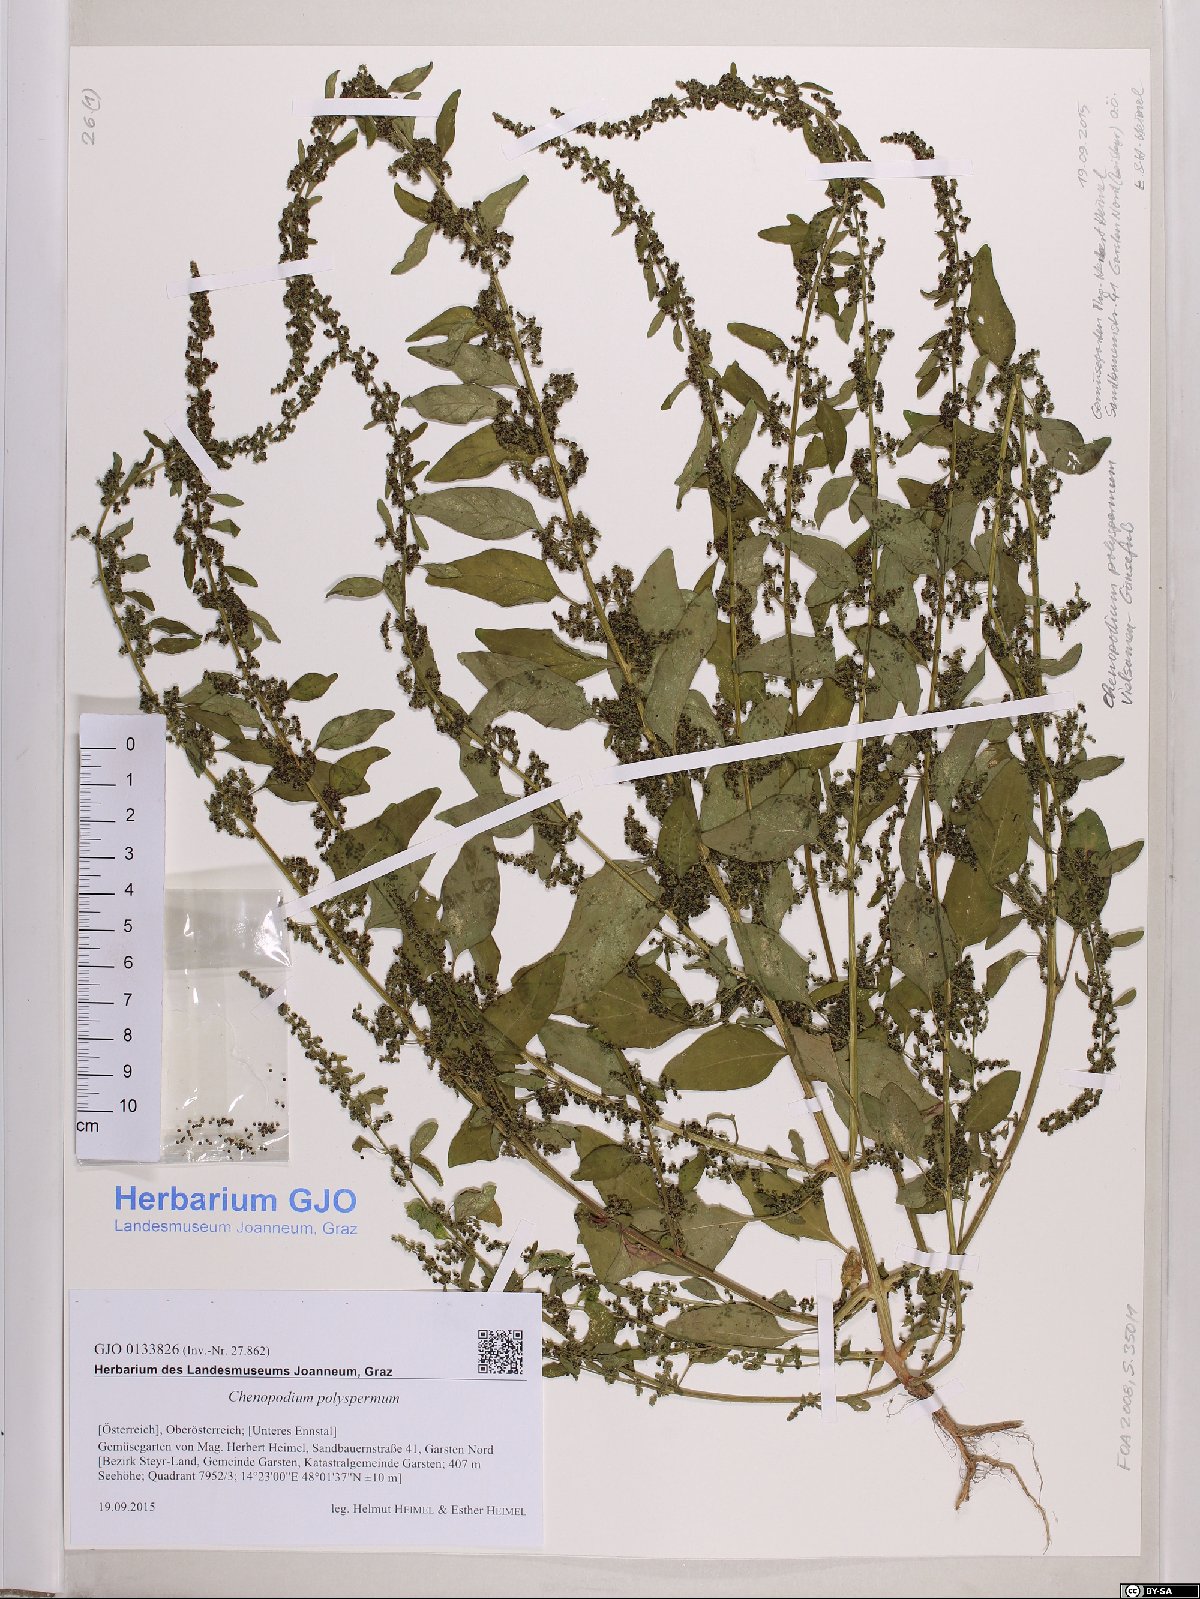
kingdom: Plantae
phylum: Tracheophyta
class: Magnoliopsida
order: Caryophyllales
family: Amaranthaceae
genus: Lipandra
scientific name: Lipandra polysperma
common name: Many-seed goosefoot
